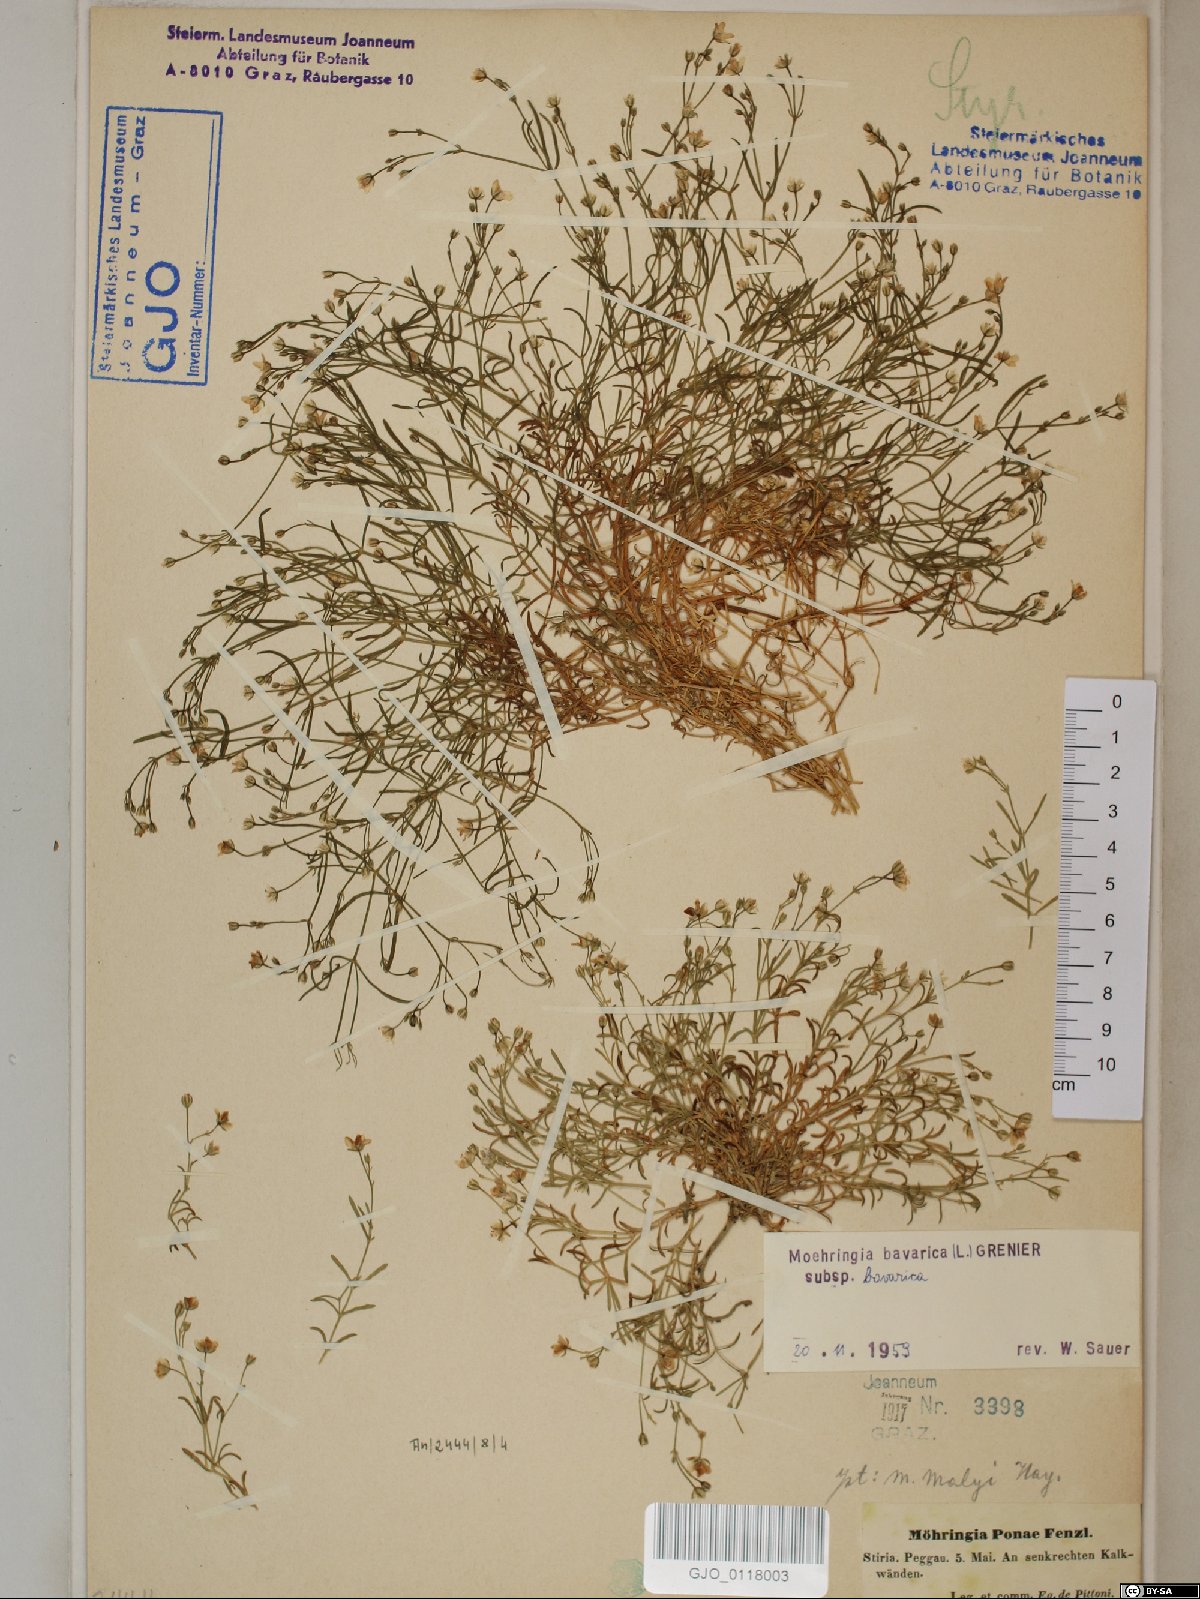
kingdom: Plantae
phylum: Tracheophyta
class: Magnoliopsida
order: Caryophyllales
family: Caryophyllaceae
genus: Moehringia
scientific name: Moehringia bavarica
